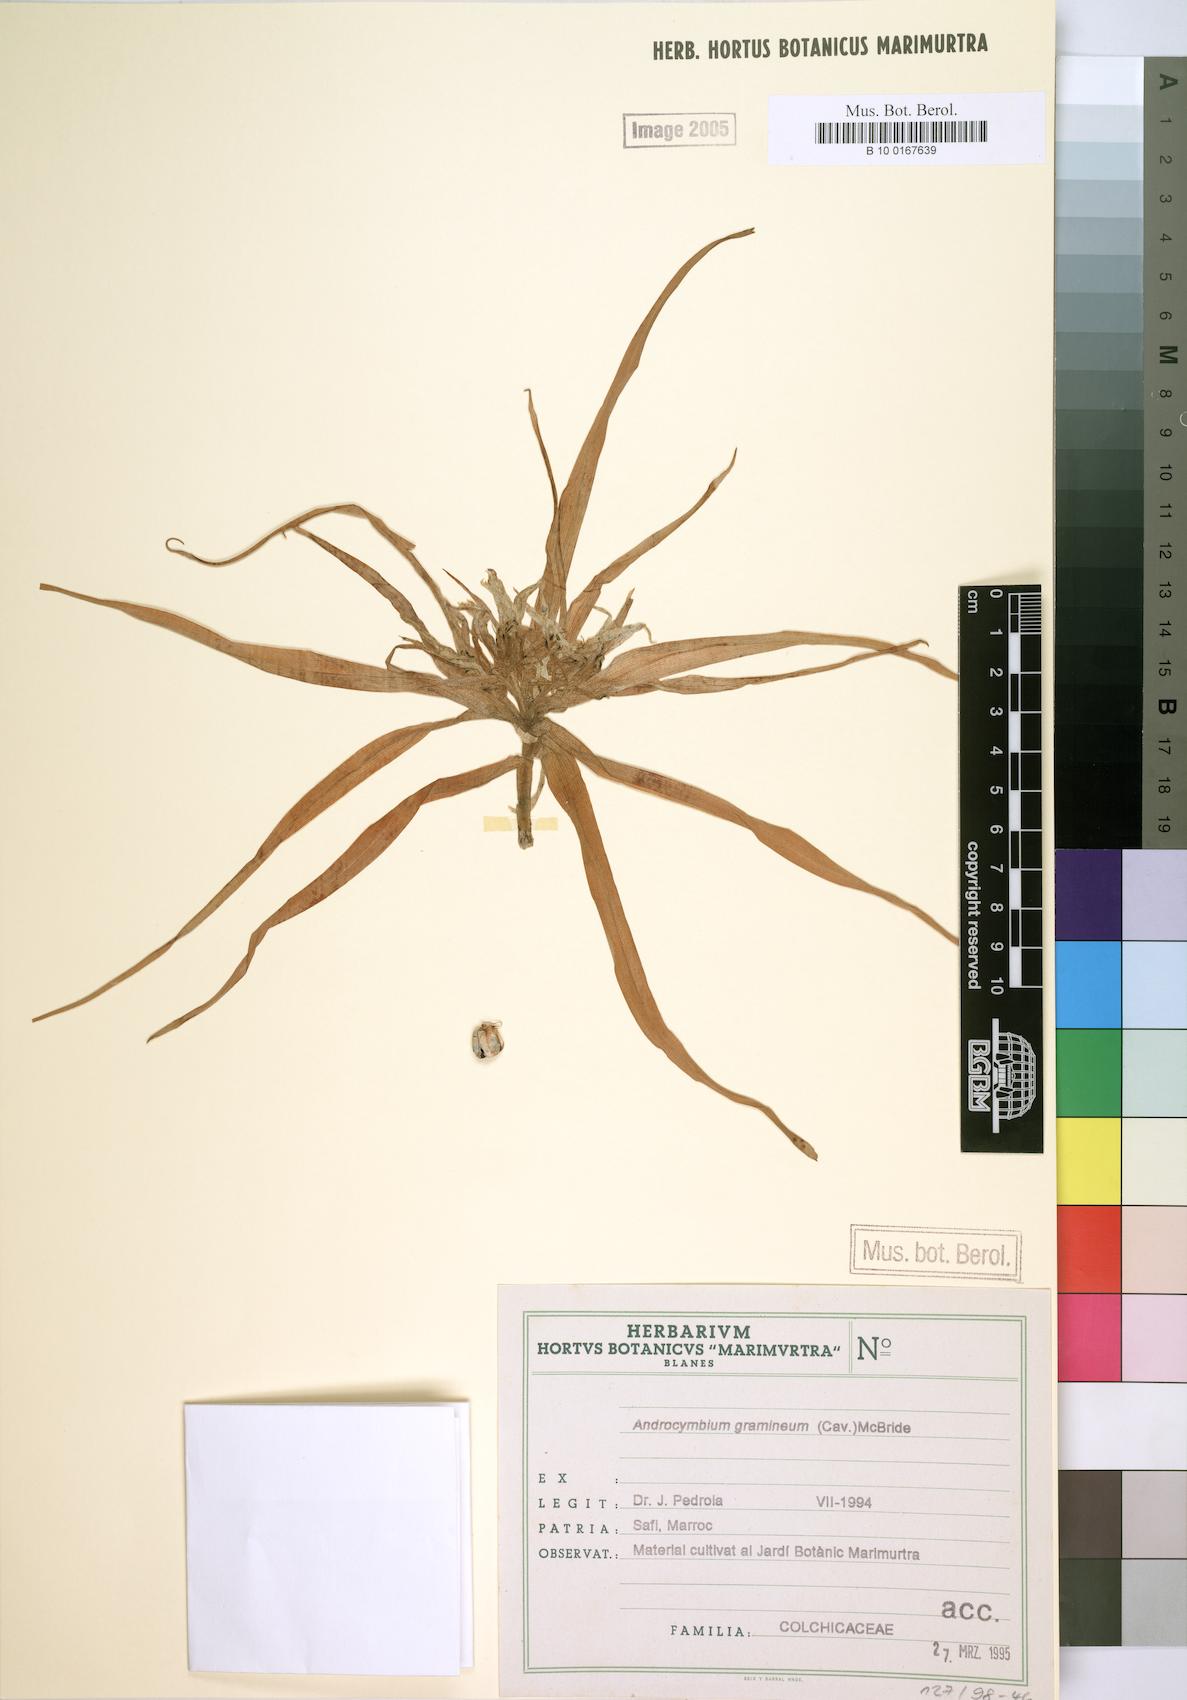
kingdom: Plantae
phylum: Tracheophyta
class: Liliopsida
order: Liliales
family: Colchicaceae
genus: Colchicum
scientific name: Colchicum gramineum
